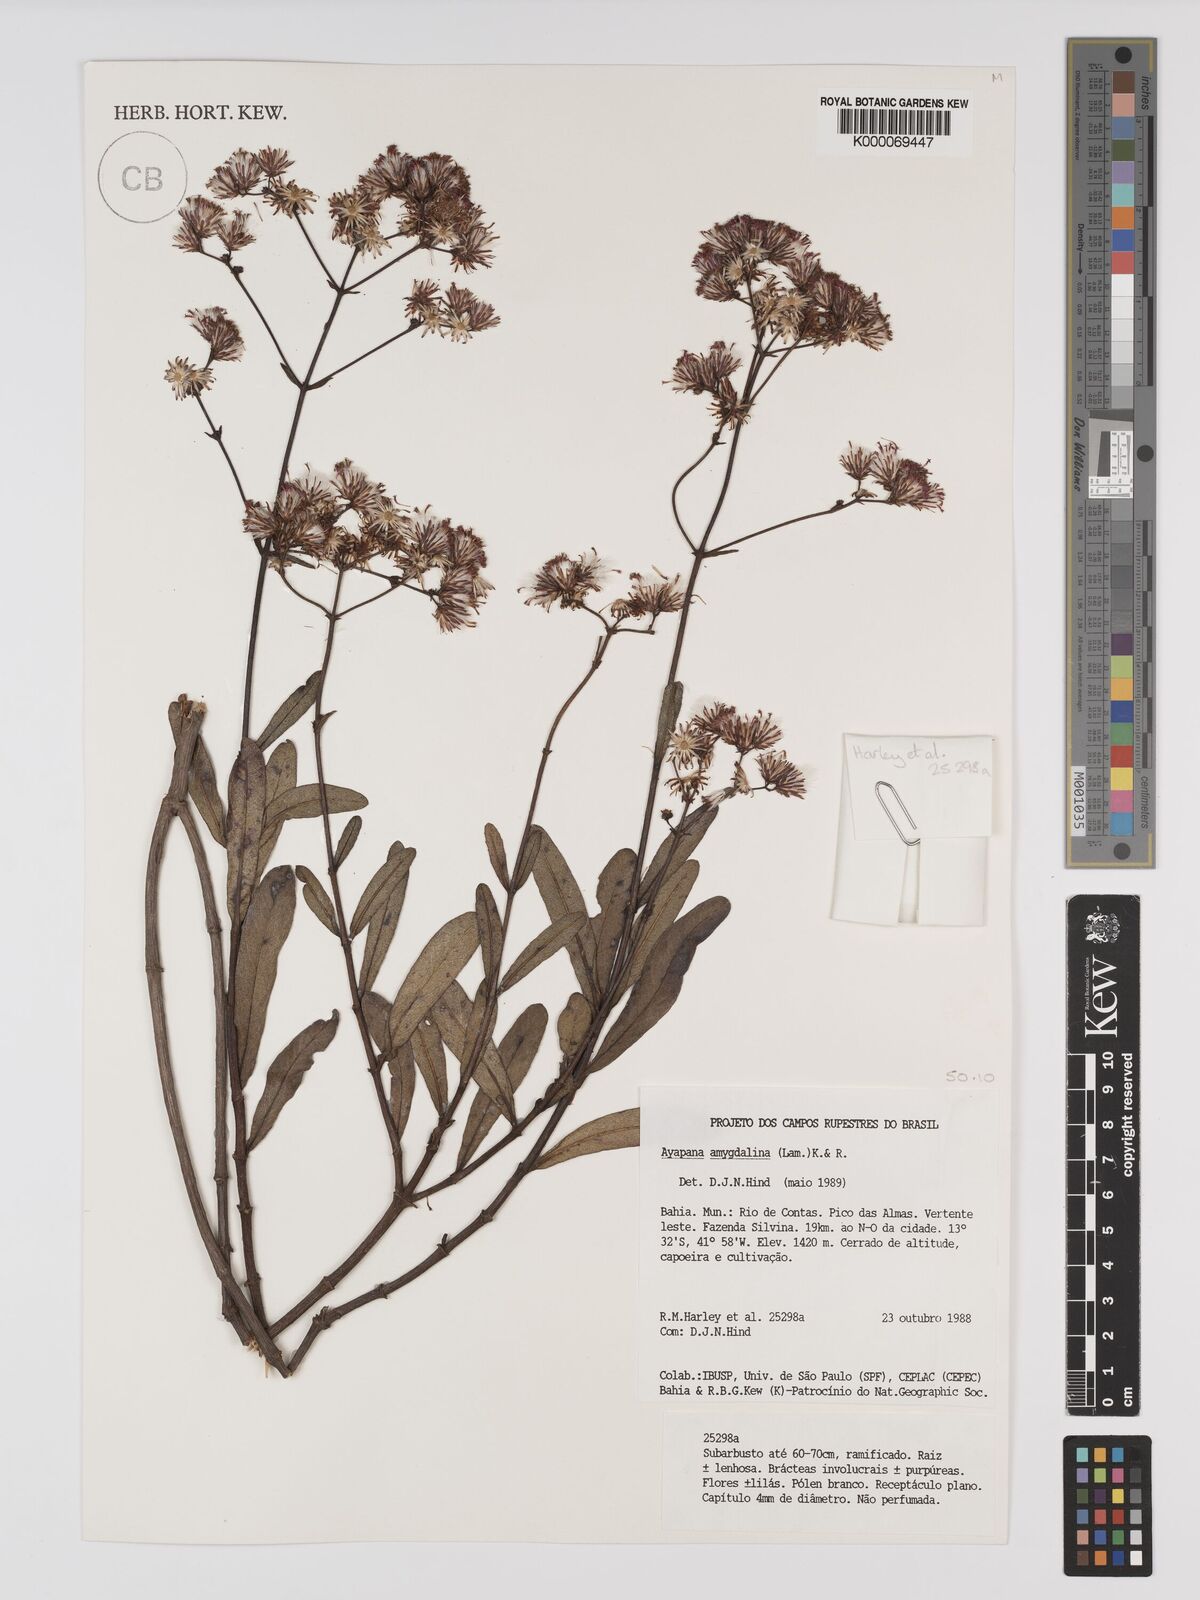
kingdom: Plantae
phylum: Tracheophyta
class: Magnoliopsida
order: Asterales
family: Asteraceae
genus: Ayapana
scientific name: Ayapana amygdalina
